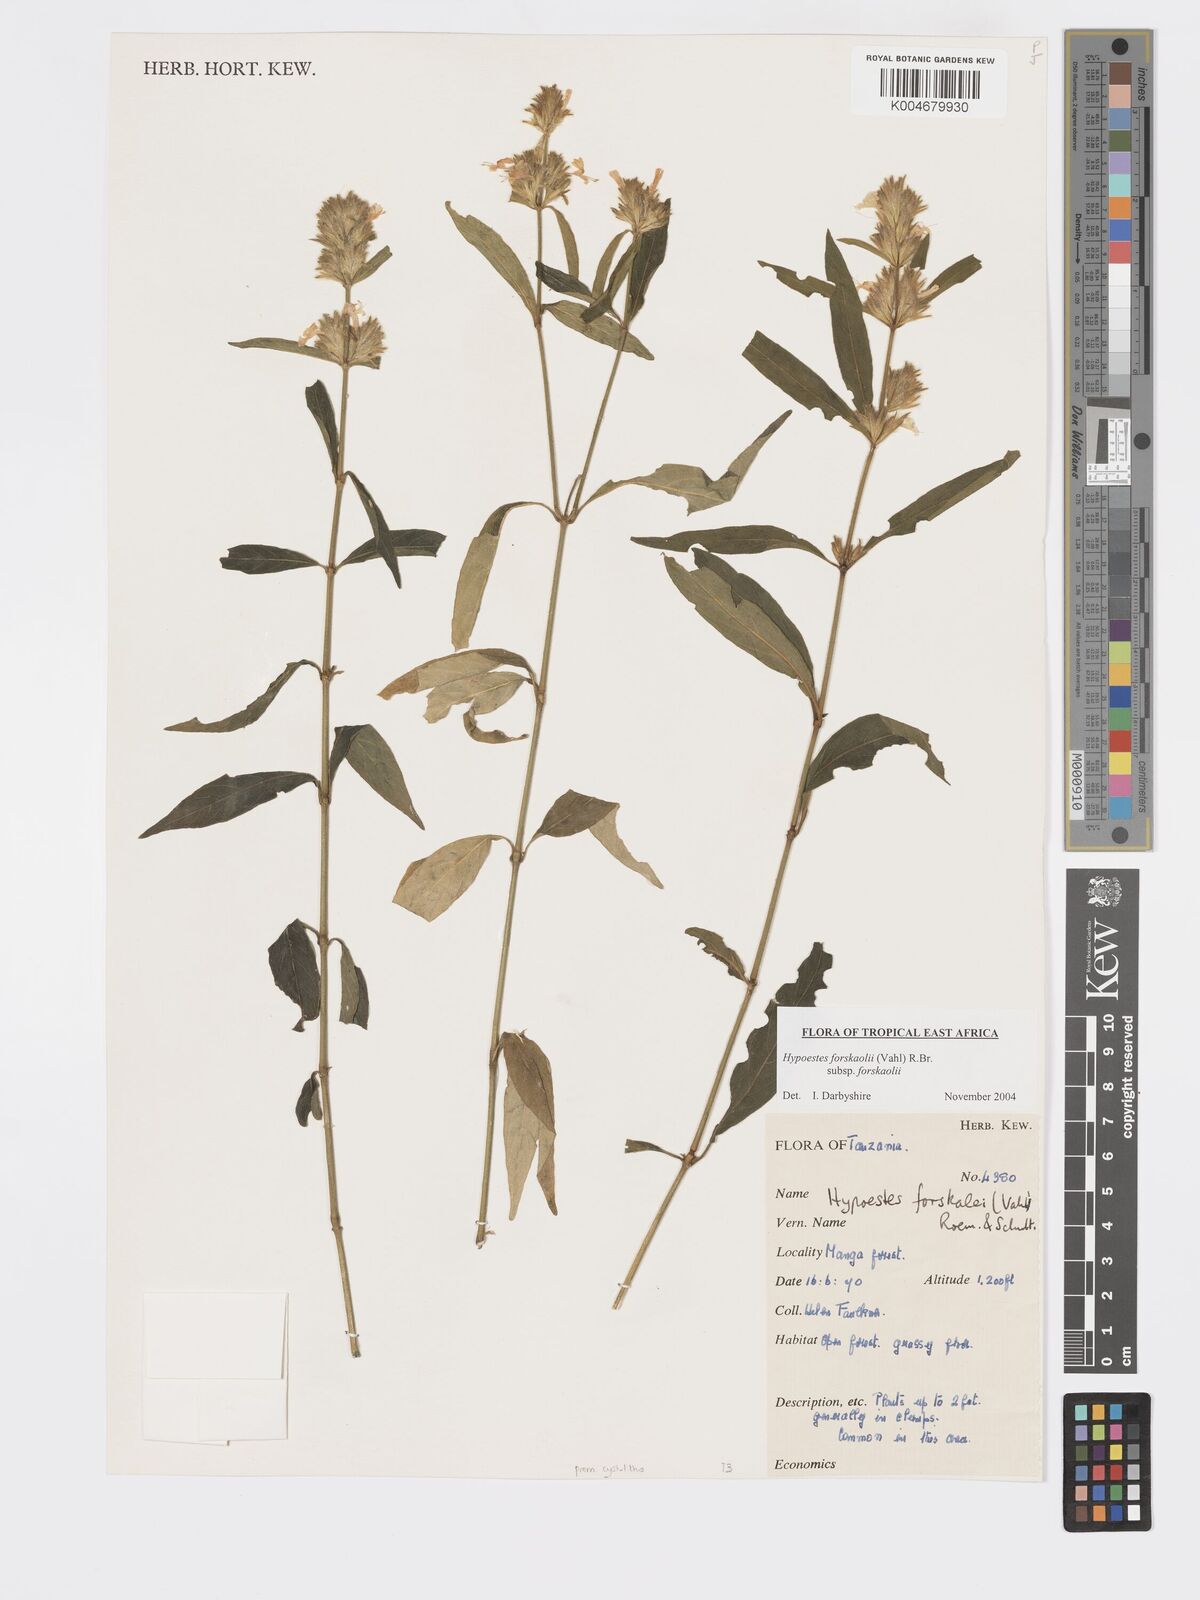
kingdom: Plantae
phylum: Tracheophyta
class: Magnoliopsida
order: Lamiales
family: Acanthaceae
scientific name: Acanthaceae
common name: Acanthaceae
